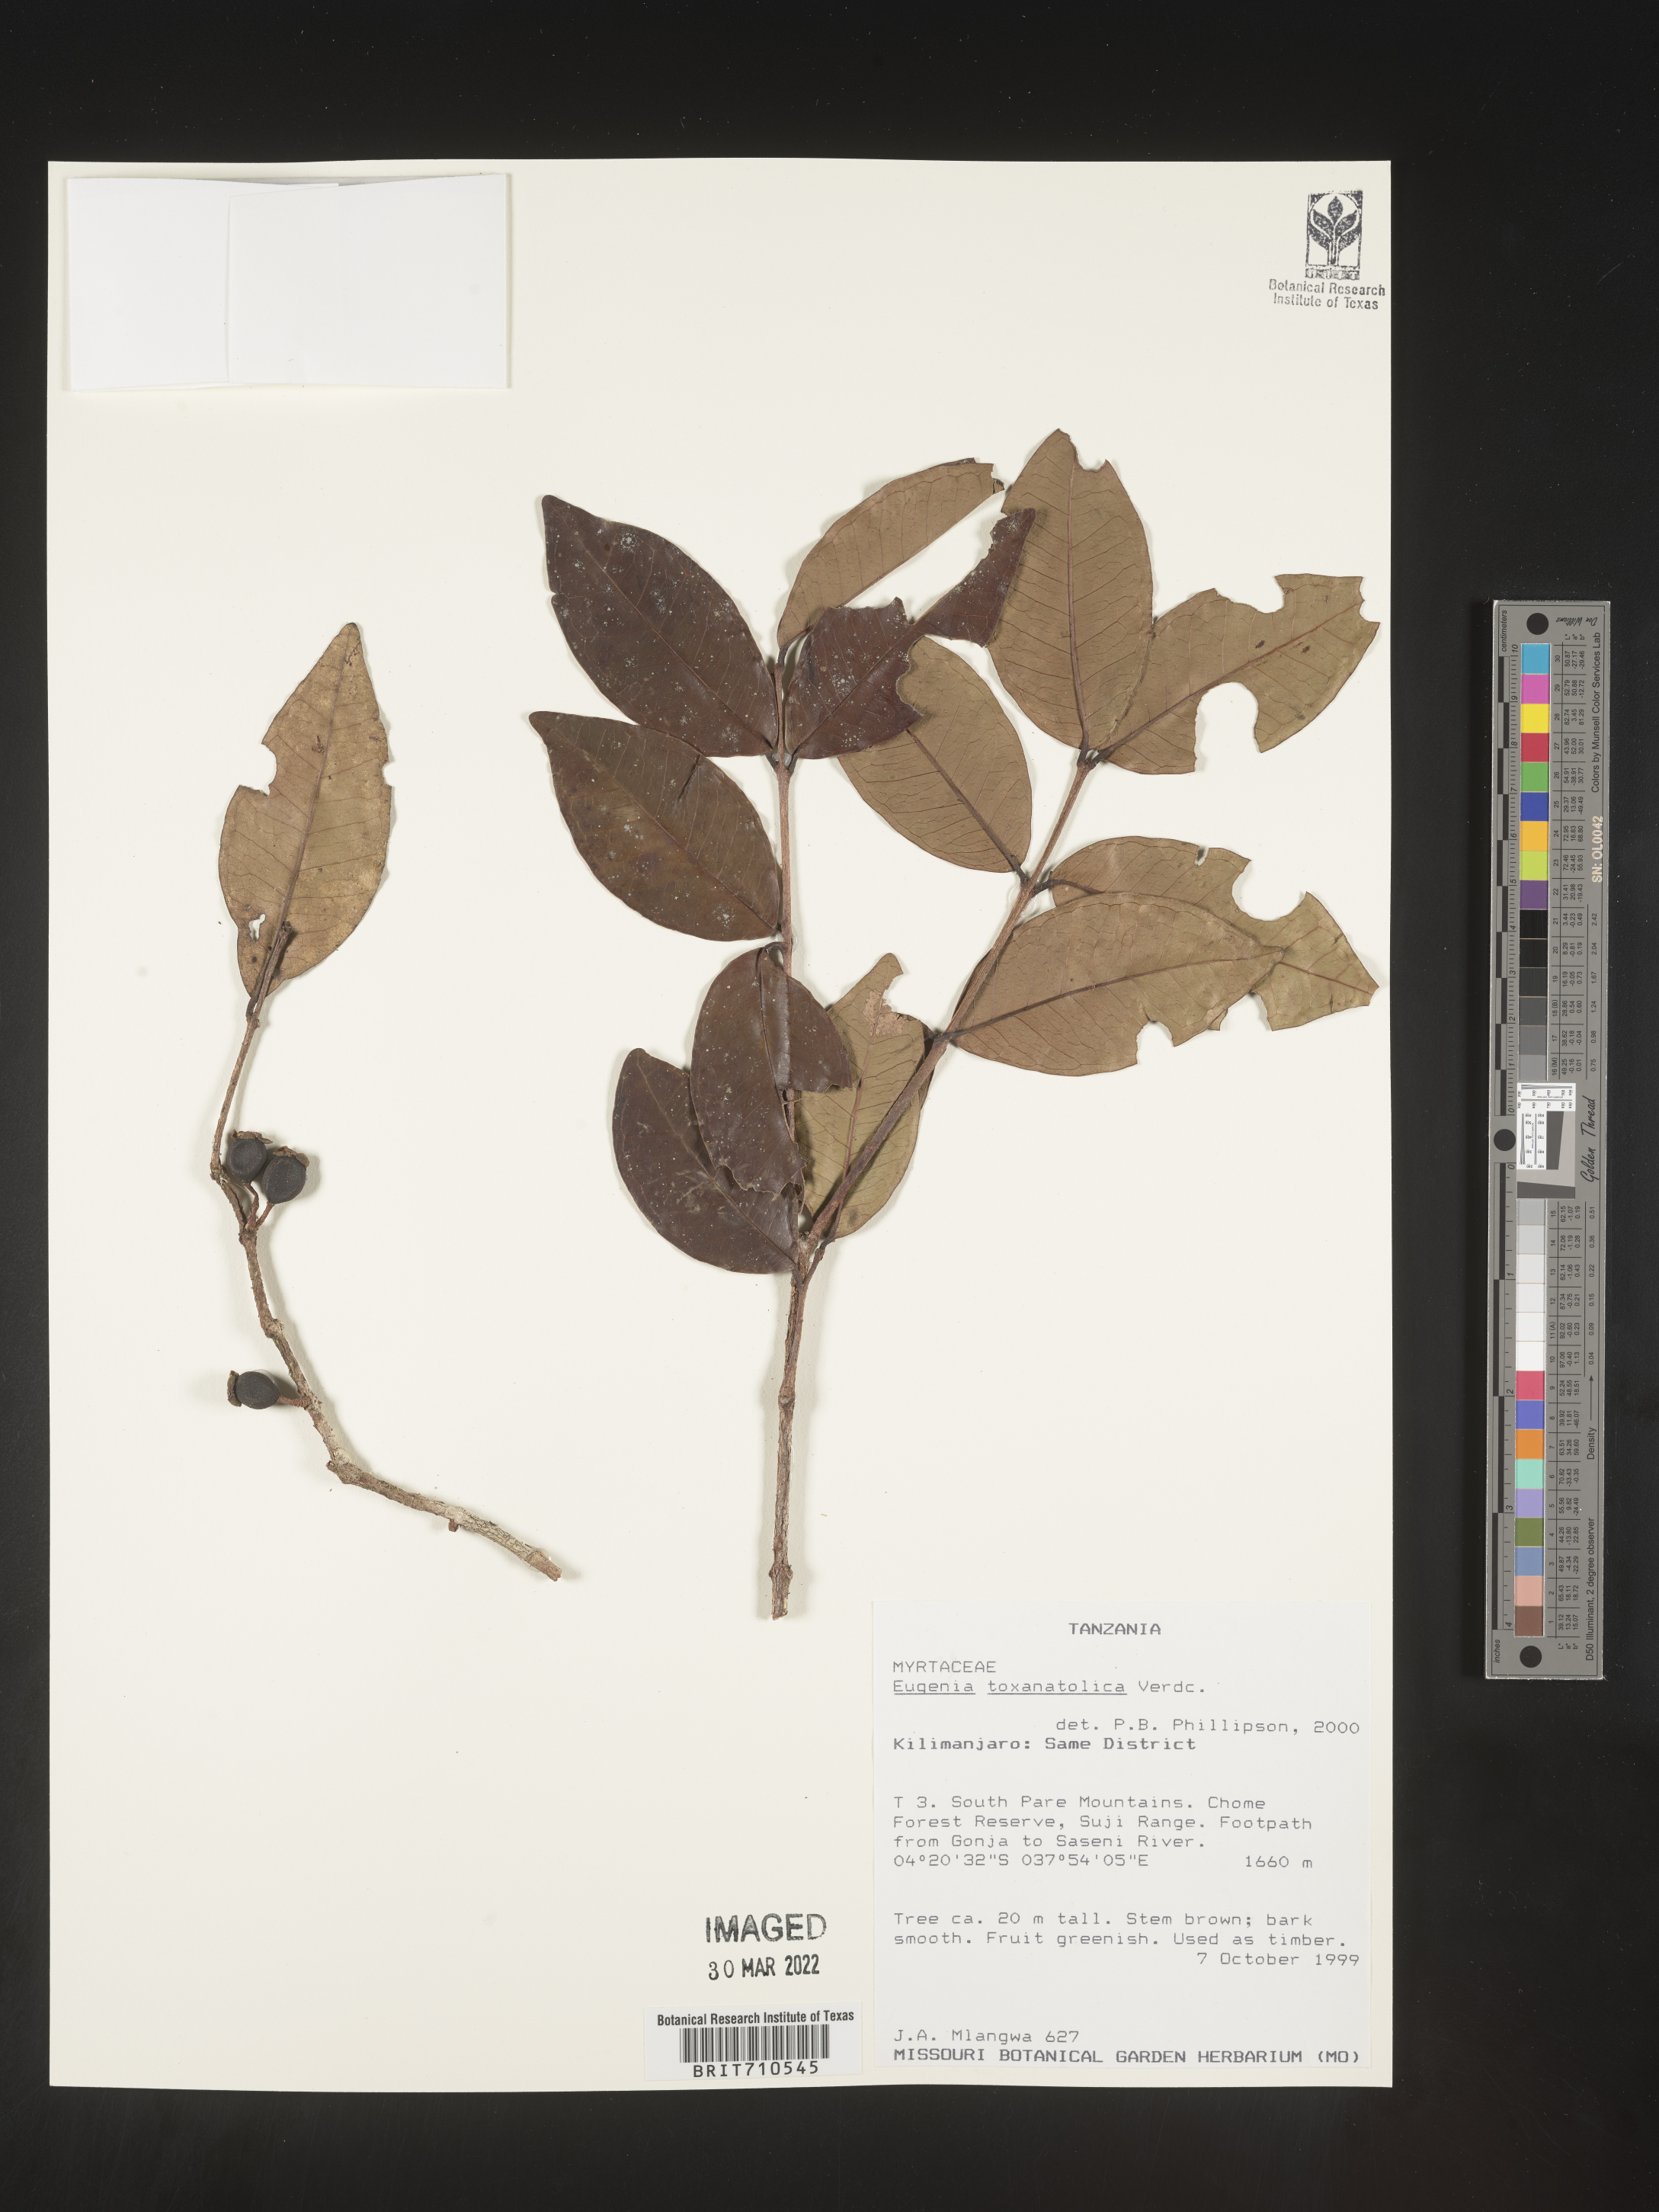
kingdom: Plantae
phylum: Tracheophyta
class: Magnoliopsida
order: Myrtales
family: Myrtaceae
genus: Eugenia
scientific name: Eugenia
